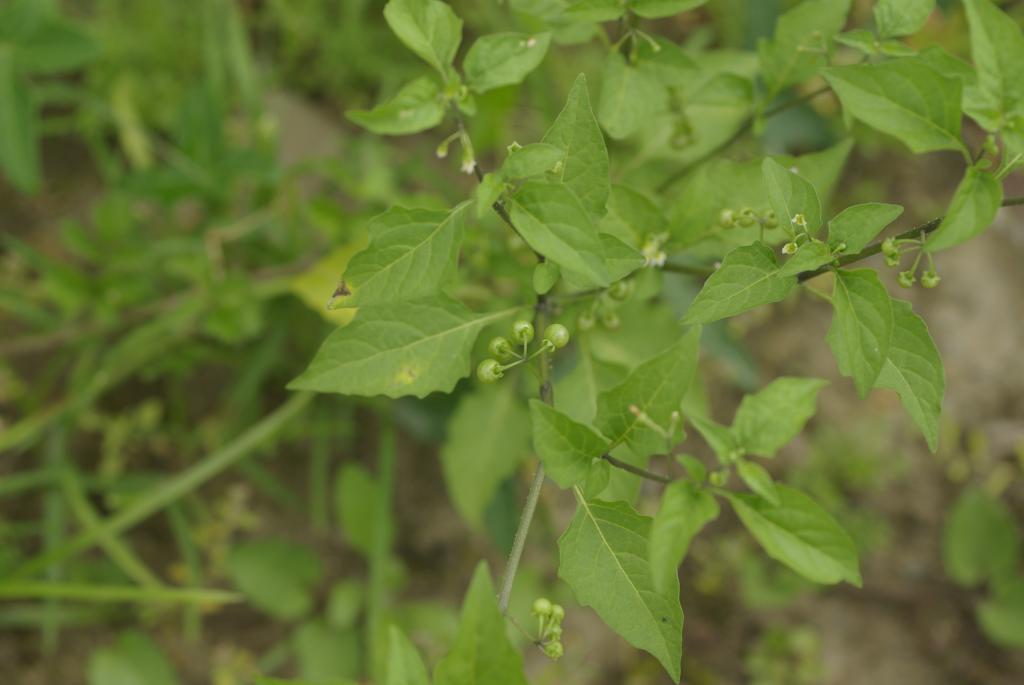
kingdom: Plantae
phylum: Tracheophyta
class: Magnoliopsida
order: Solanales
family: Solanaceae
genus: Solanum
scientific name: Solanum americanum
